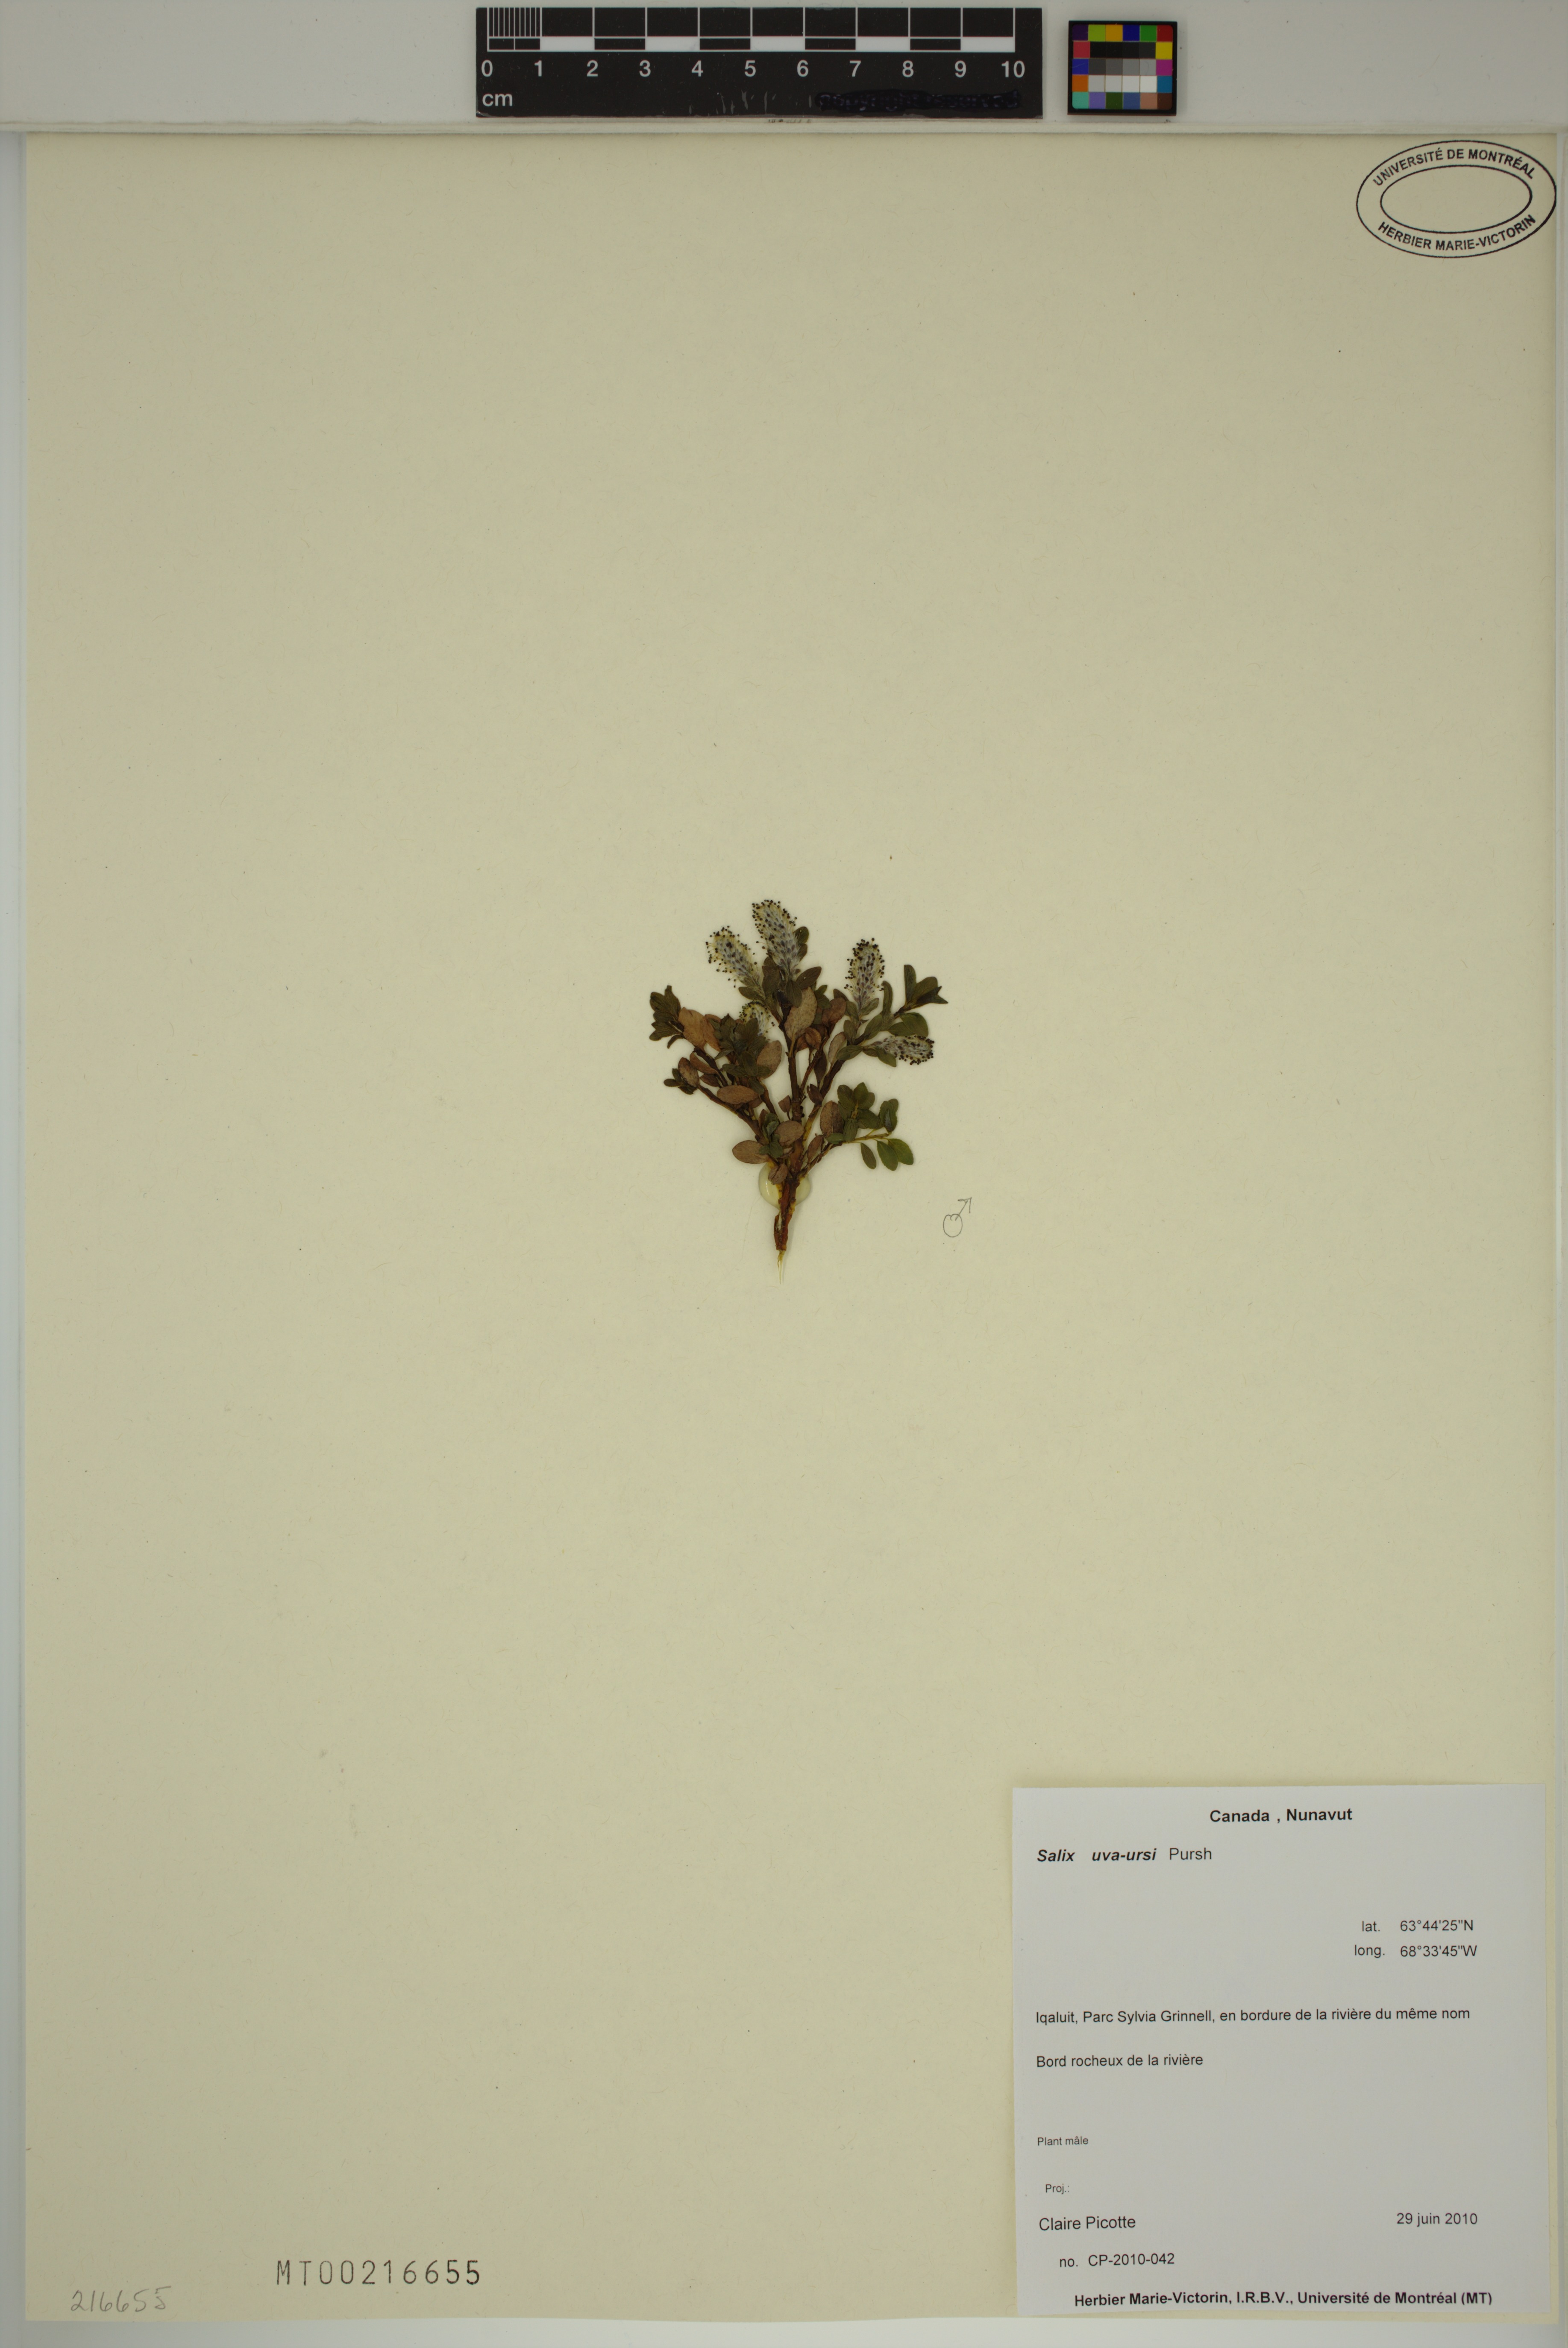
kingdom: Plantae
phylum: Tracheophyta
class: Magnoliopsida
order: Malpighiales
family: Salicaceae
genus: Salix
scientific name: Salix uva-ursi
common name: Bearberry willow
